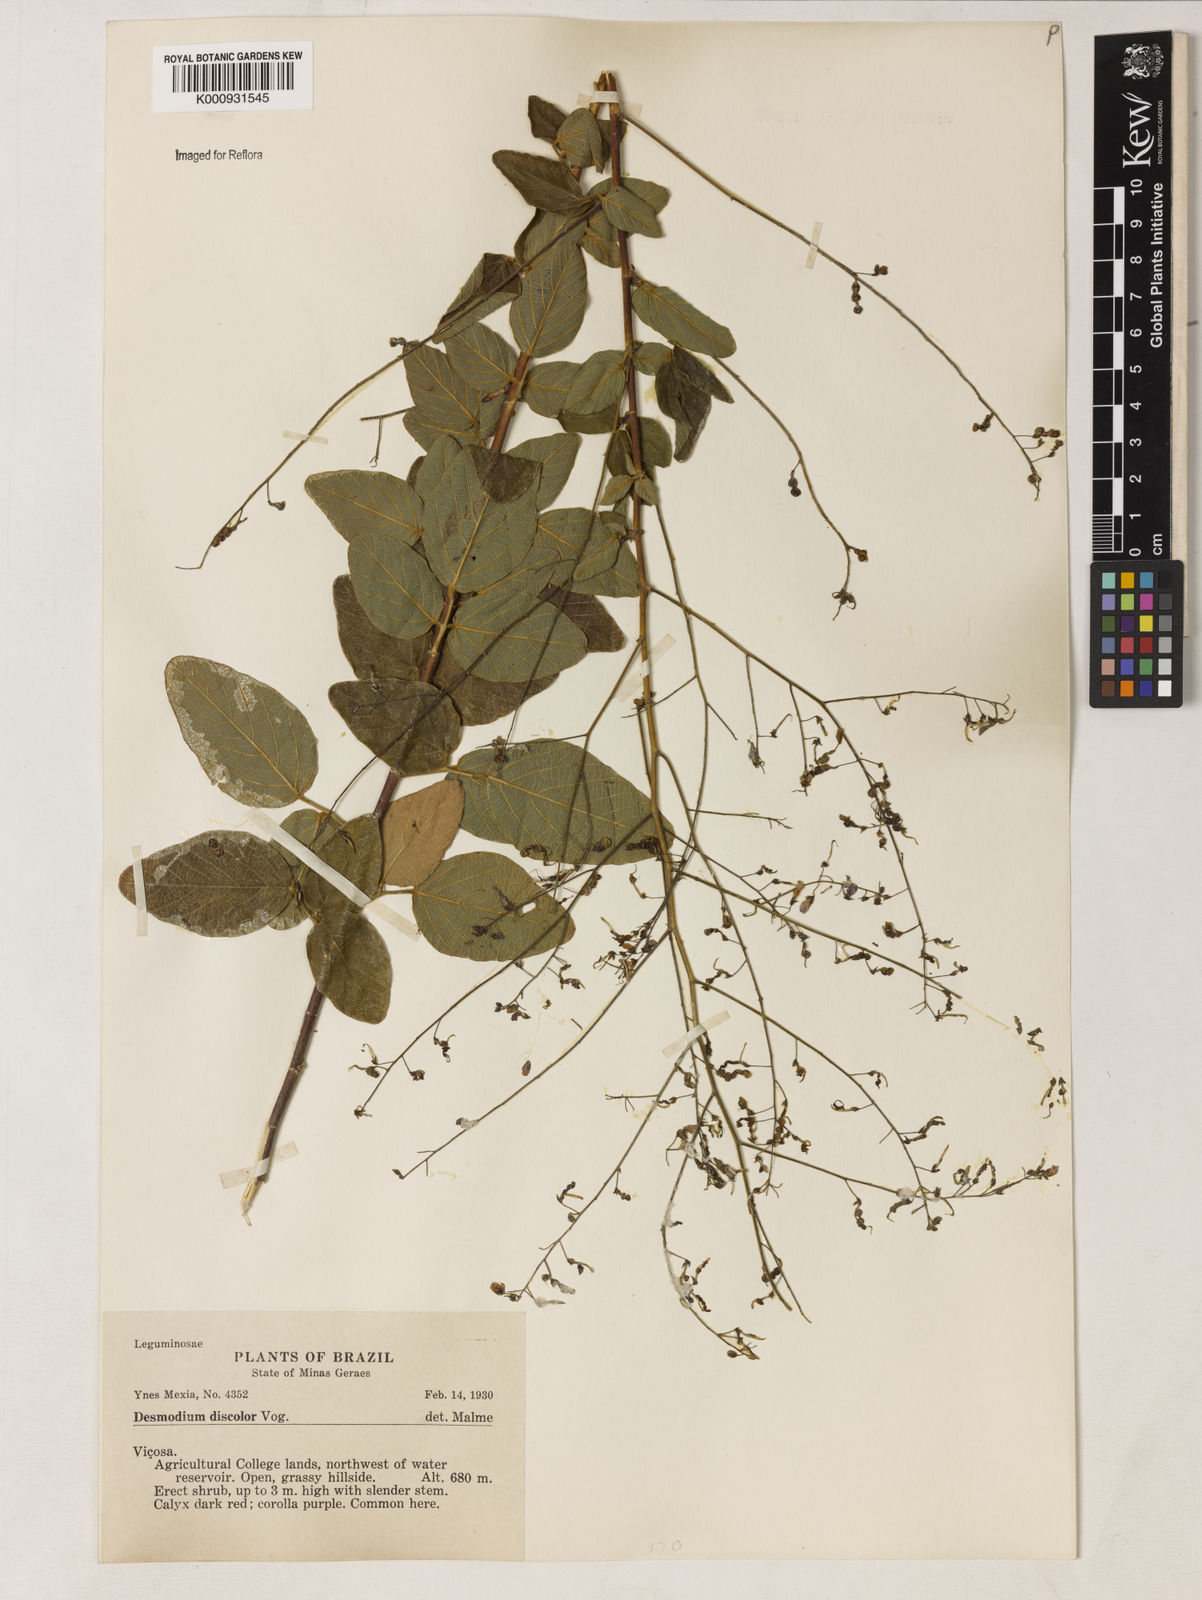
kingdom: Plantae
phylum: Tracheophyta
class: Magnoliopsida
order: Fabales
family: Fabaceae
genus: Desmodium
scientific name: Desmodium subsecundum
